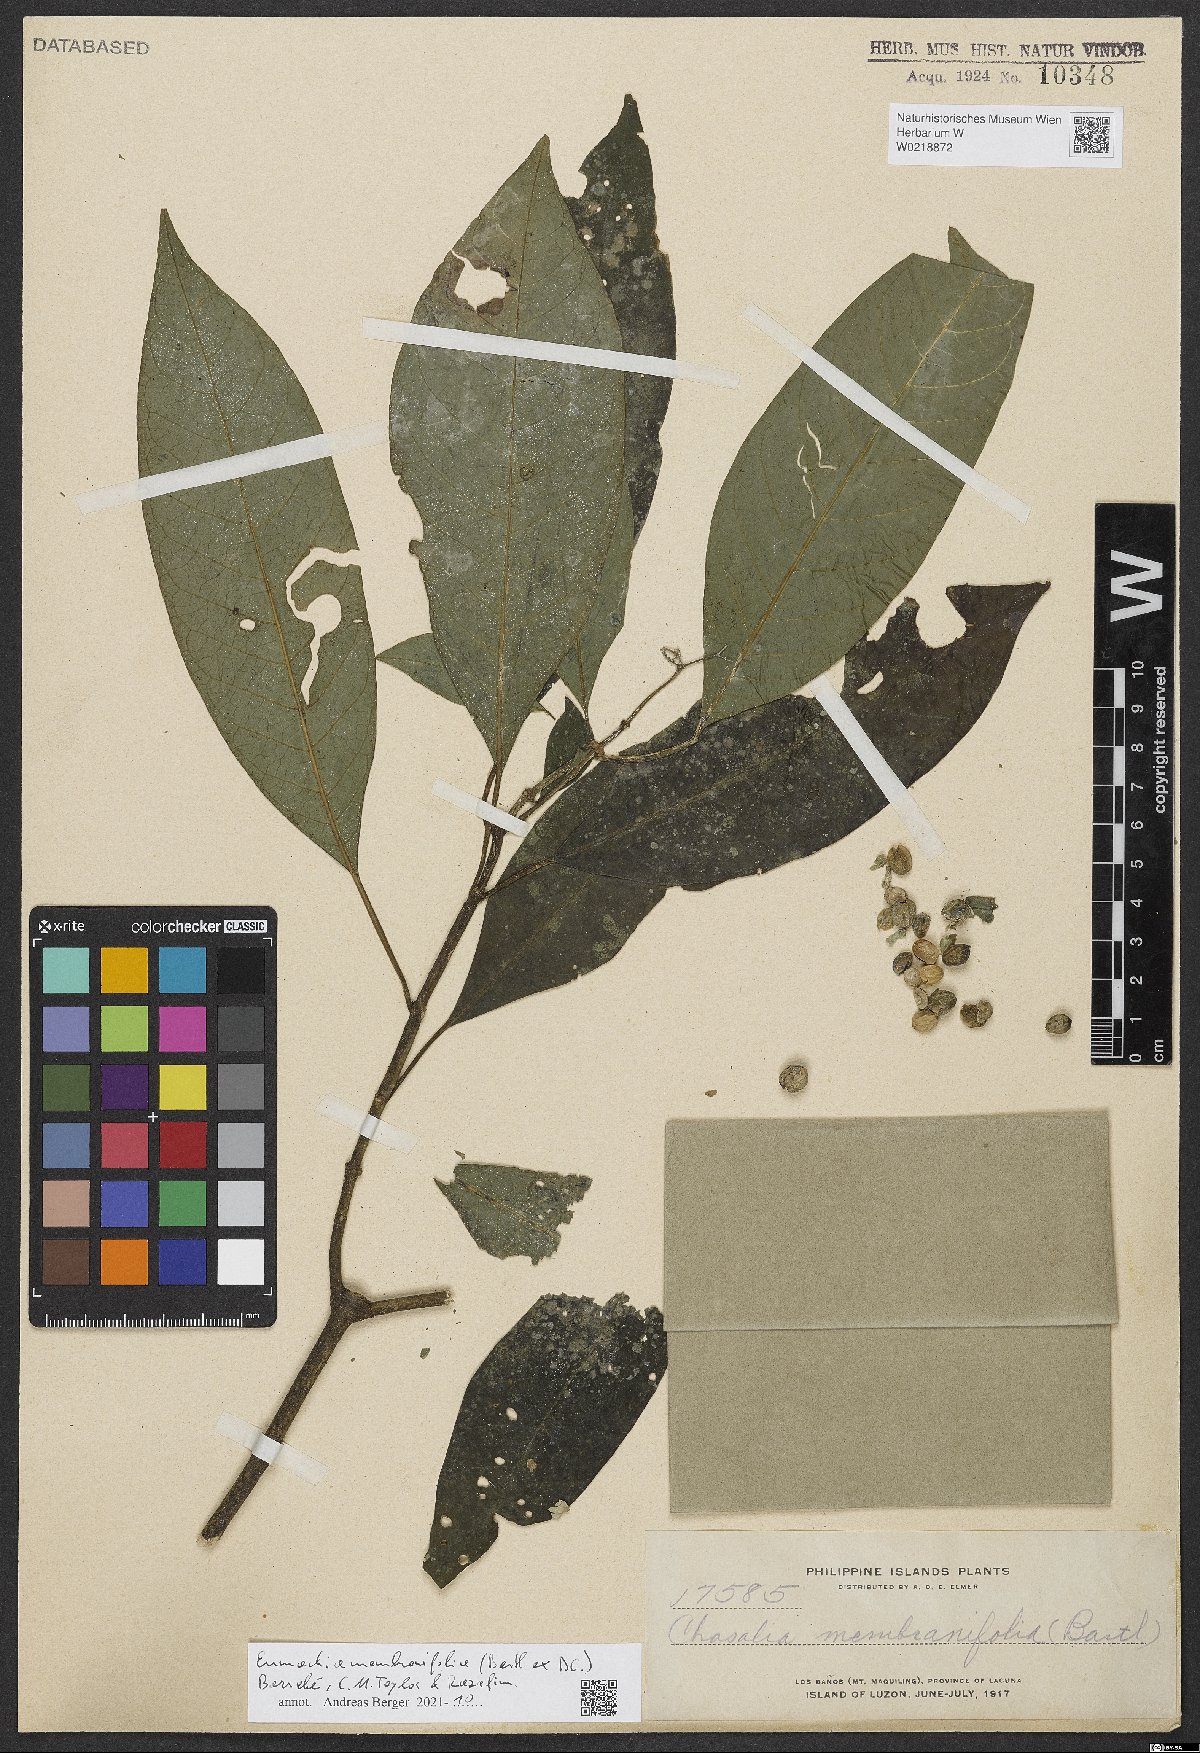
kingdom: Plantae
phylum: Tracheophyta
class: Magnoliopsida
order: Gentianales
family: Rubiaceae
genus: Eumachia
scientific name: Eumachia membranifolia
